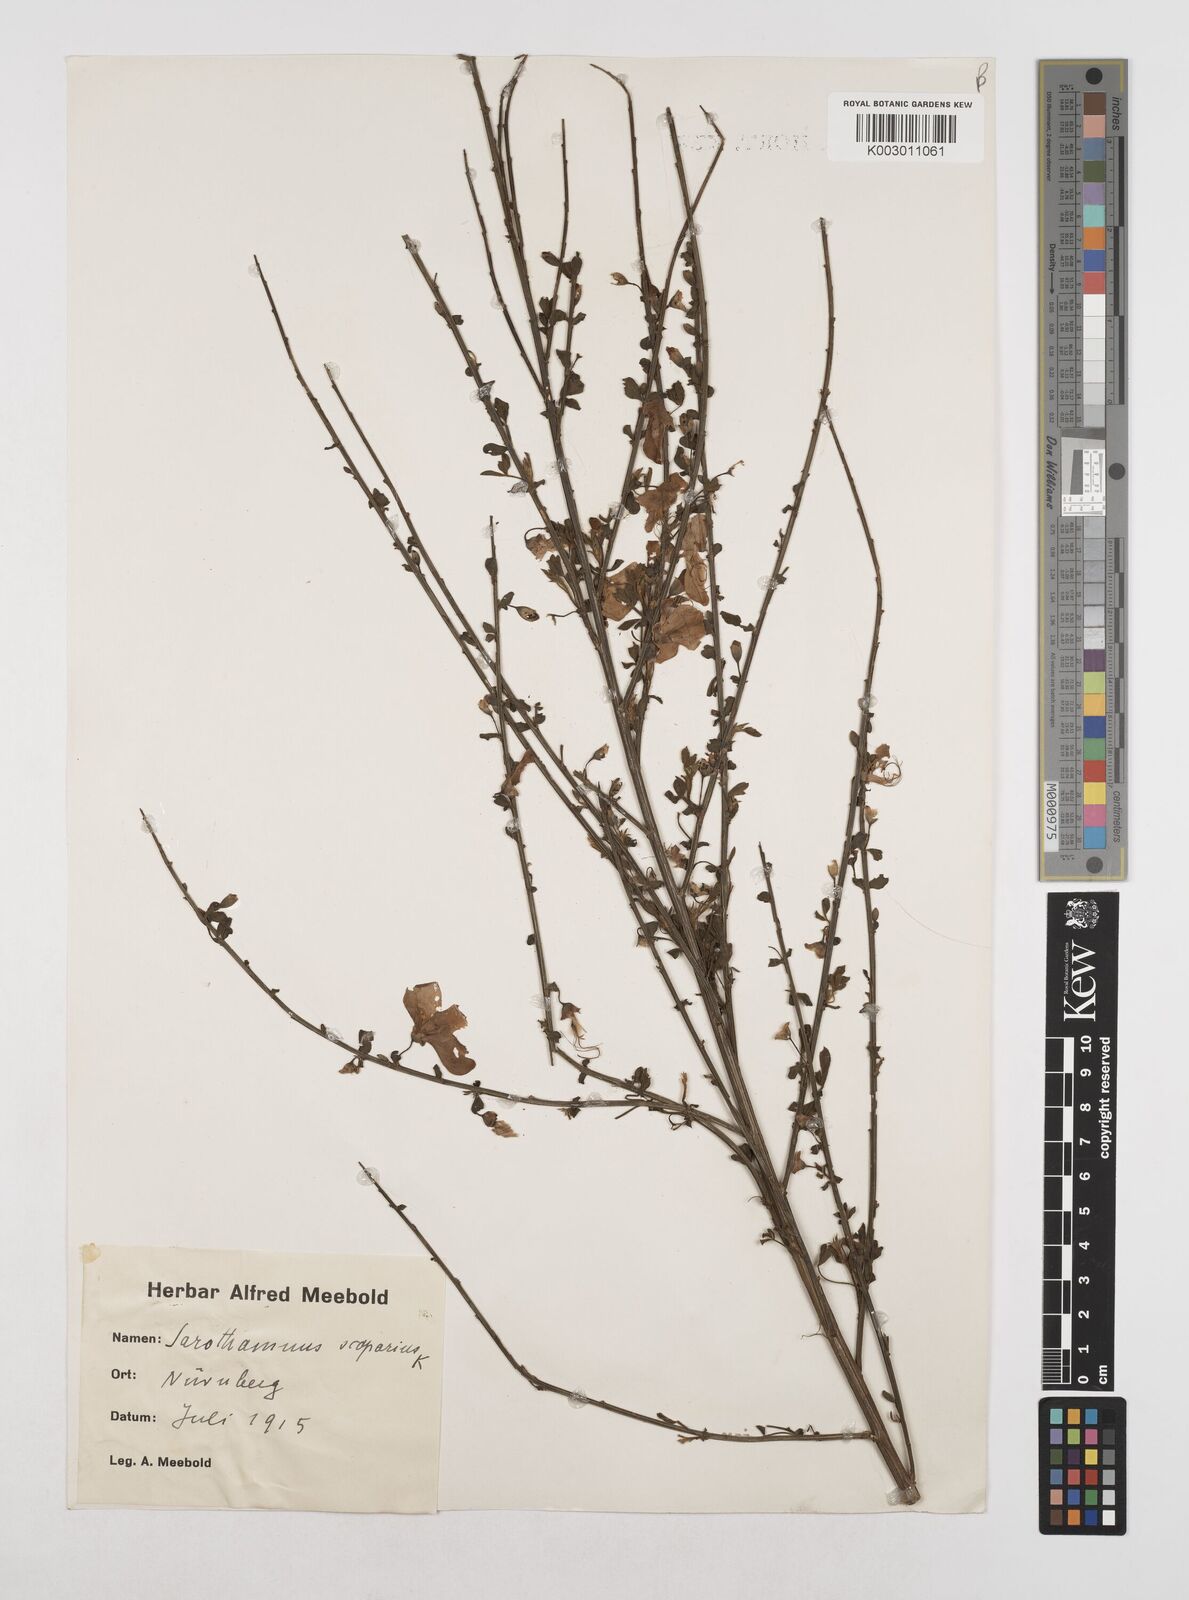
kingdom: Plantae
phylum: Tracheophyta
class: Magnoliopsida
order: Fabales
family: Fabaceae
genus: Cytisus
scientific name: Cytisus scoparius
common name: Scotch broom
